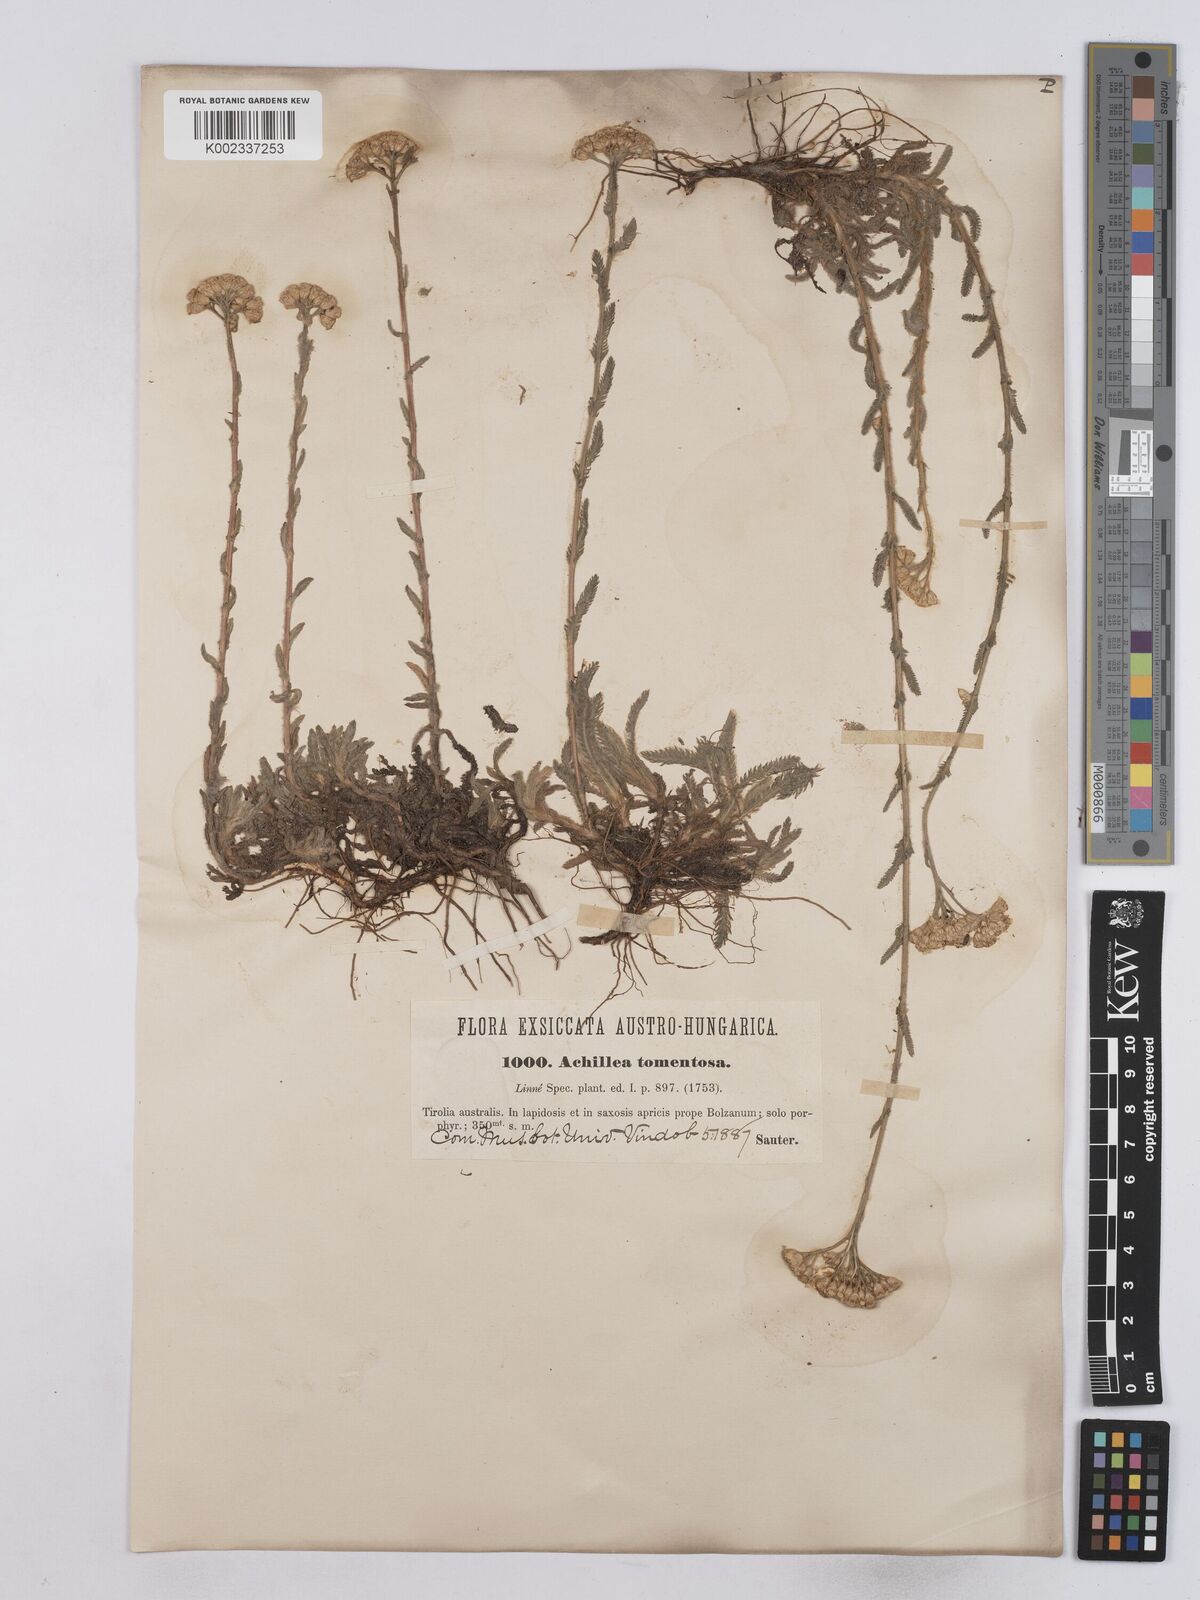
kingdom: Plantae
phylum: Tracheophyta
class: Magnoliopsida
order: Asterales
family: Asteraceae
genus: Achillea
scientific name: Achillea tomentosa
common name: Yellow milfoil
